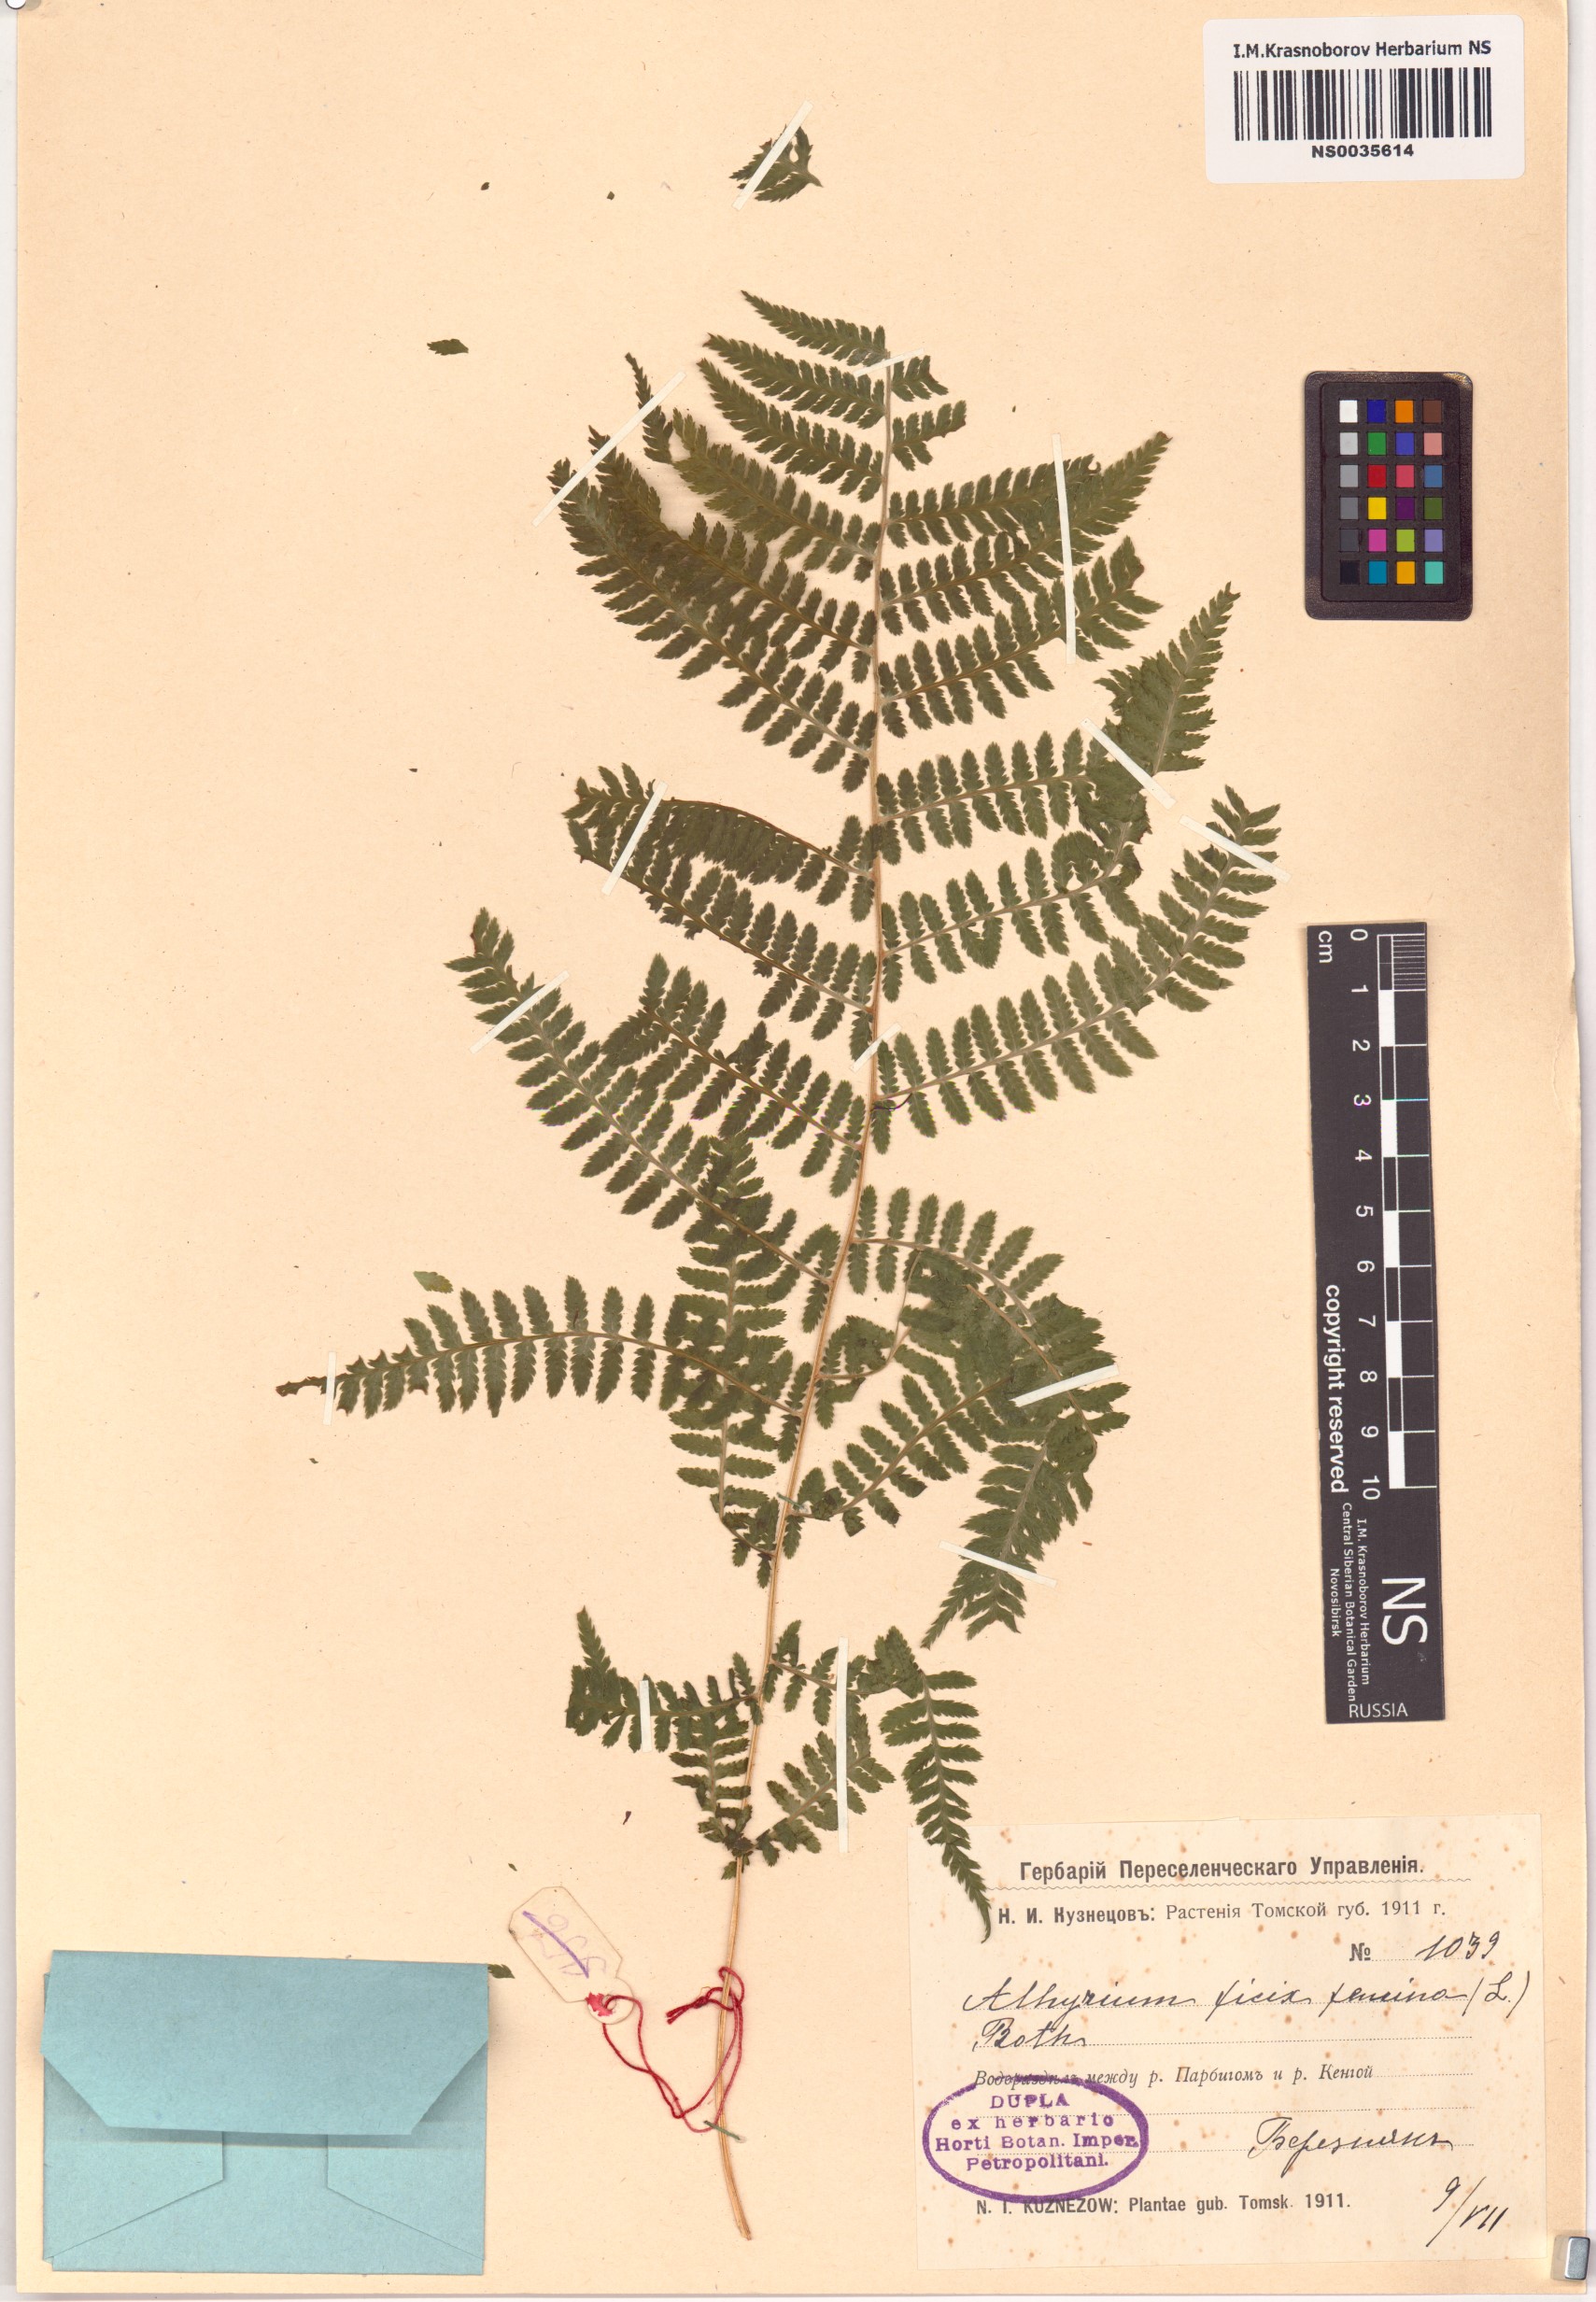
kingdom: Plantae
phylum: Tracheophyta
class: Polypodiopsida
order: Polypodiales
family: Athyriaceae
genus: Athyrium
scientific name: Athyrium filix-femina
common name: Lady fern
